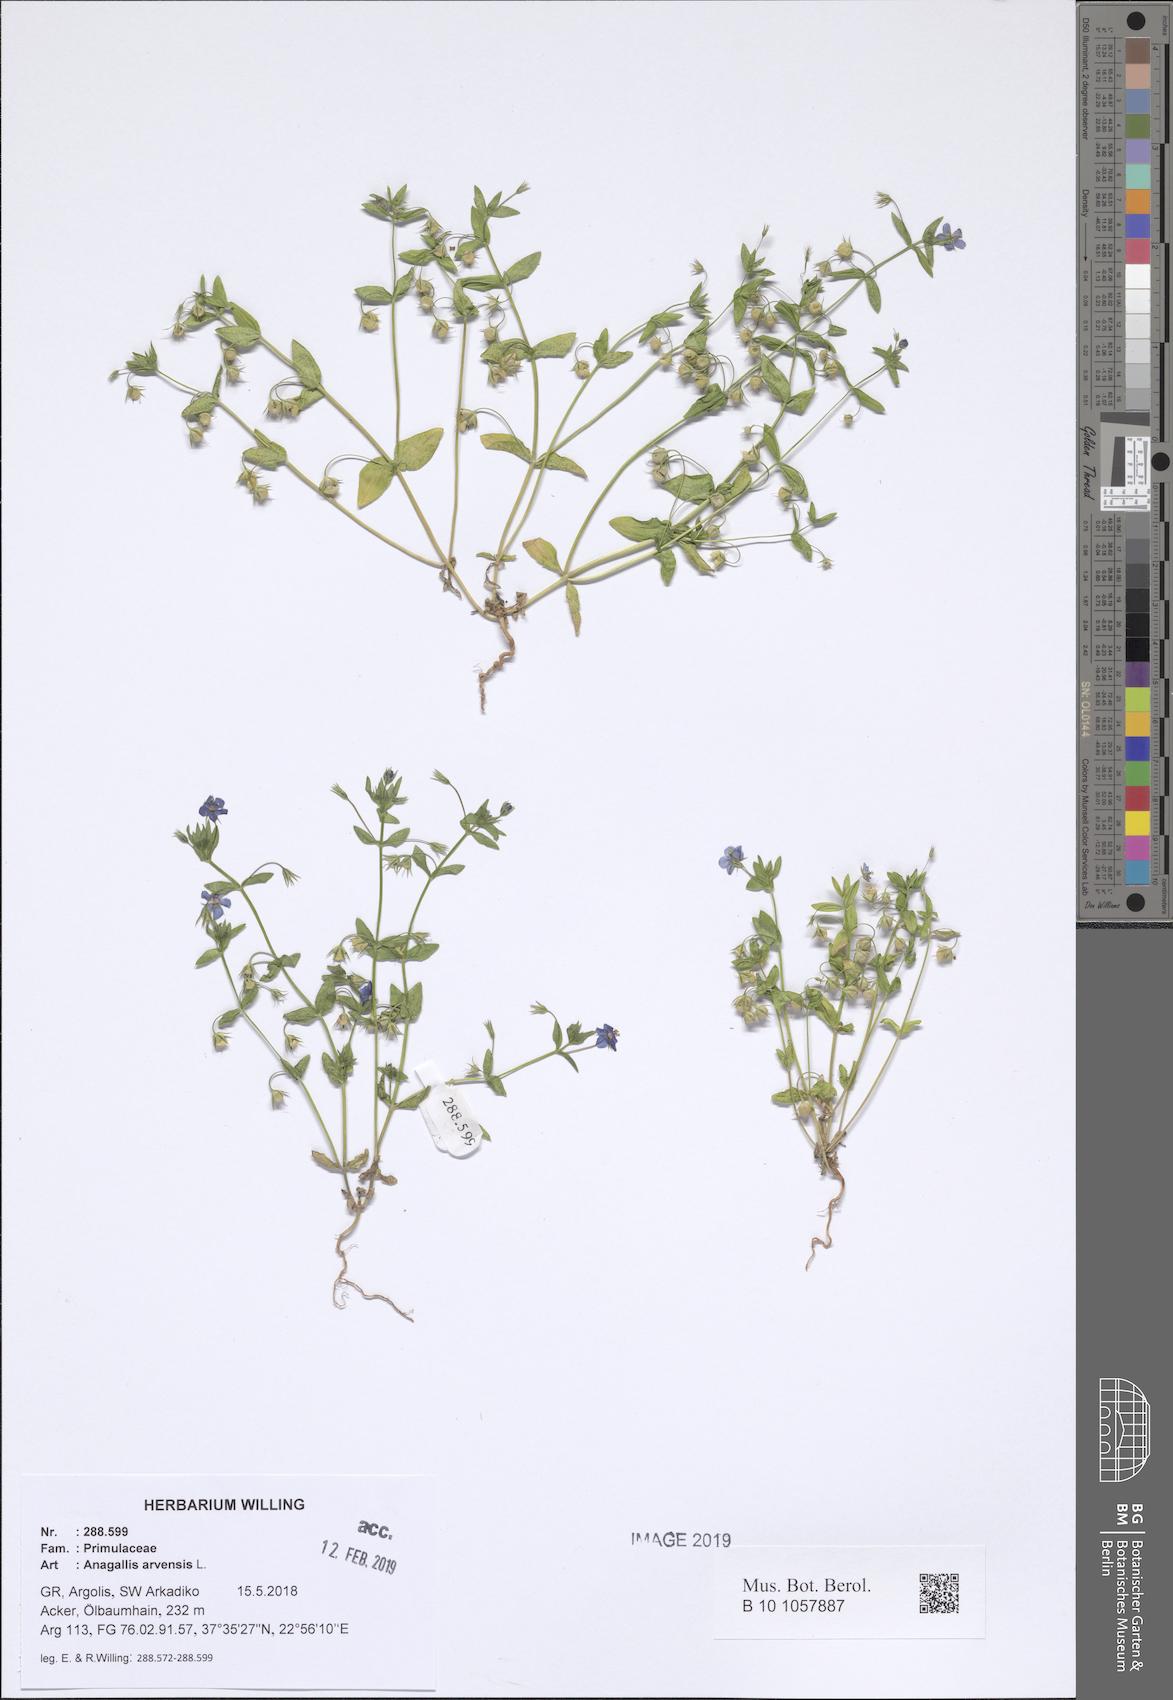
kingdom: Plantae
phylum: Tracheophyta
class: Magnoliopsida
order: Ericales
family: Primulaceae
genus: Lysimachia
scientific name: Lysimachia arvensis
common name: Scarlet pimpernel
